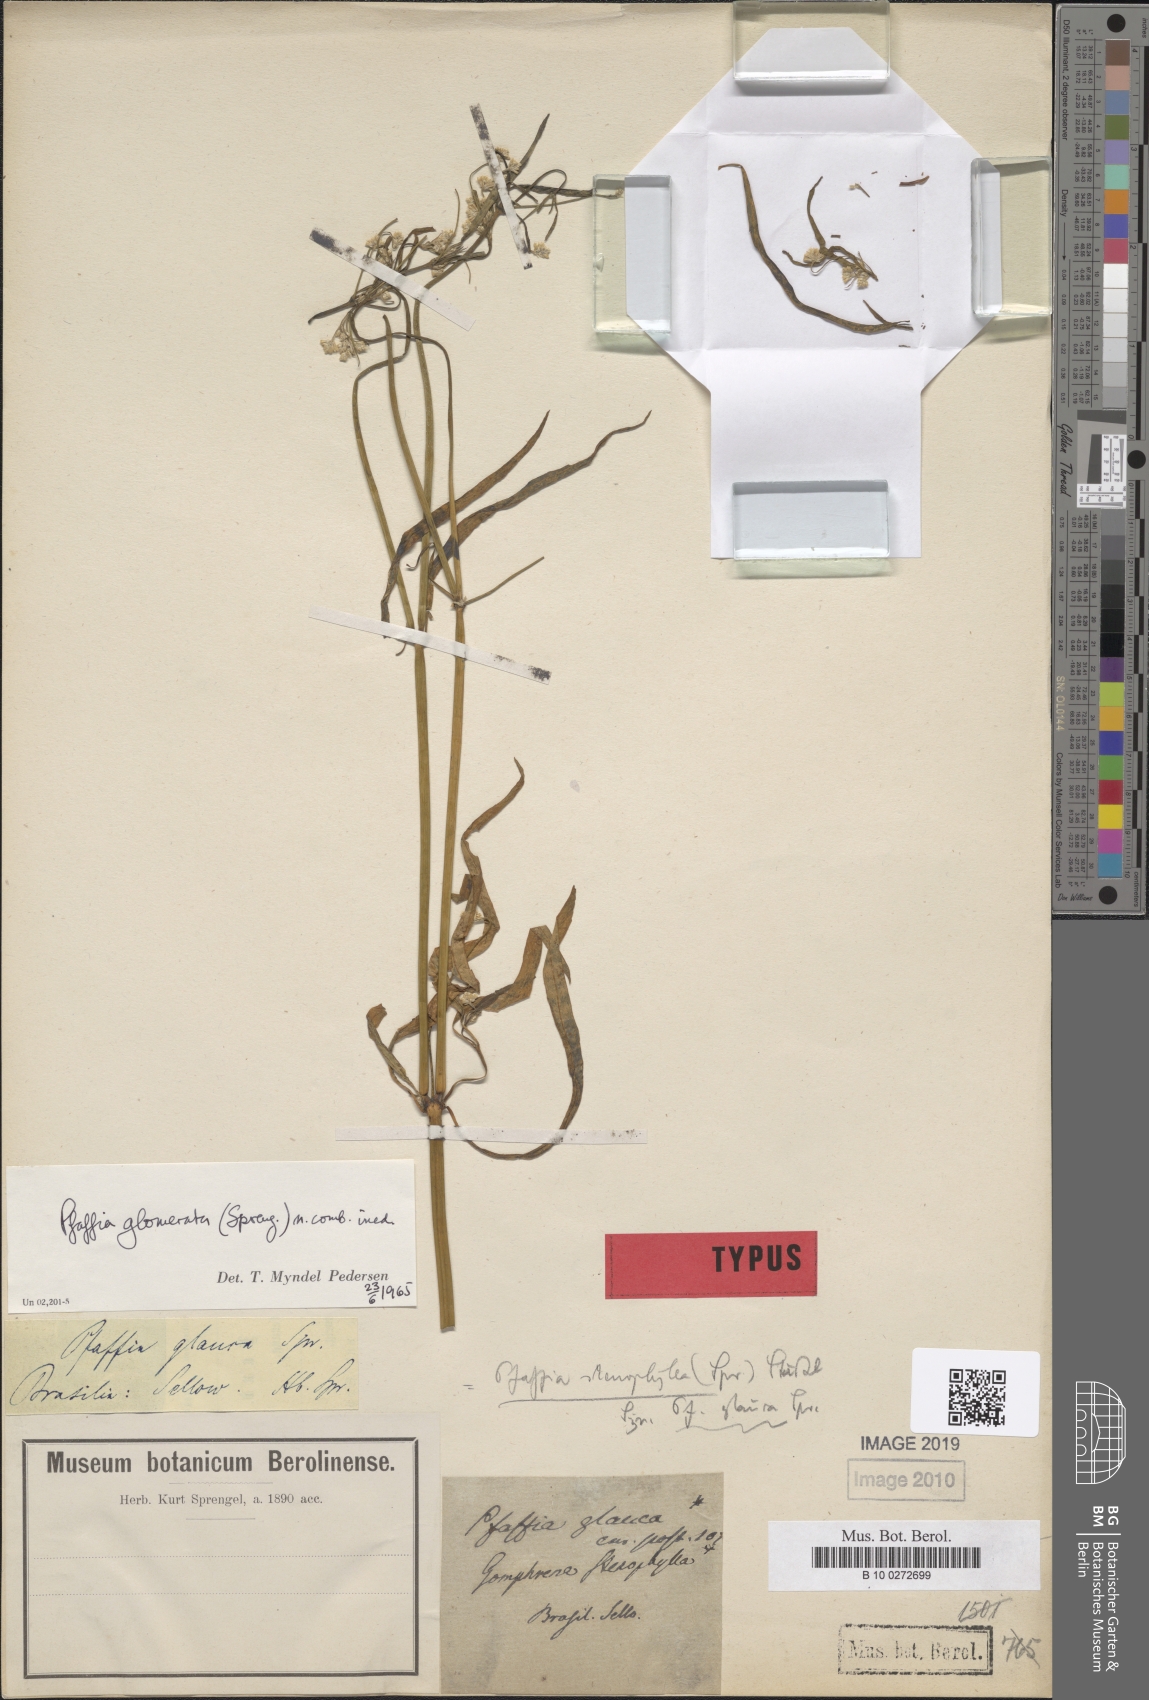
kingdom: Plantae
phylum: Tracheophyta
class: Magnoliopsida
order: Caryophyllales
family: Amaranthaceae
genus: Pfaffia
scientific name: Pfaffia glomerata
